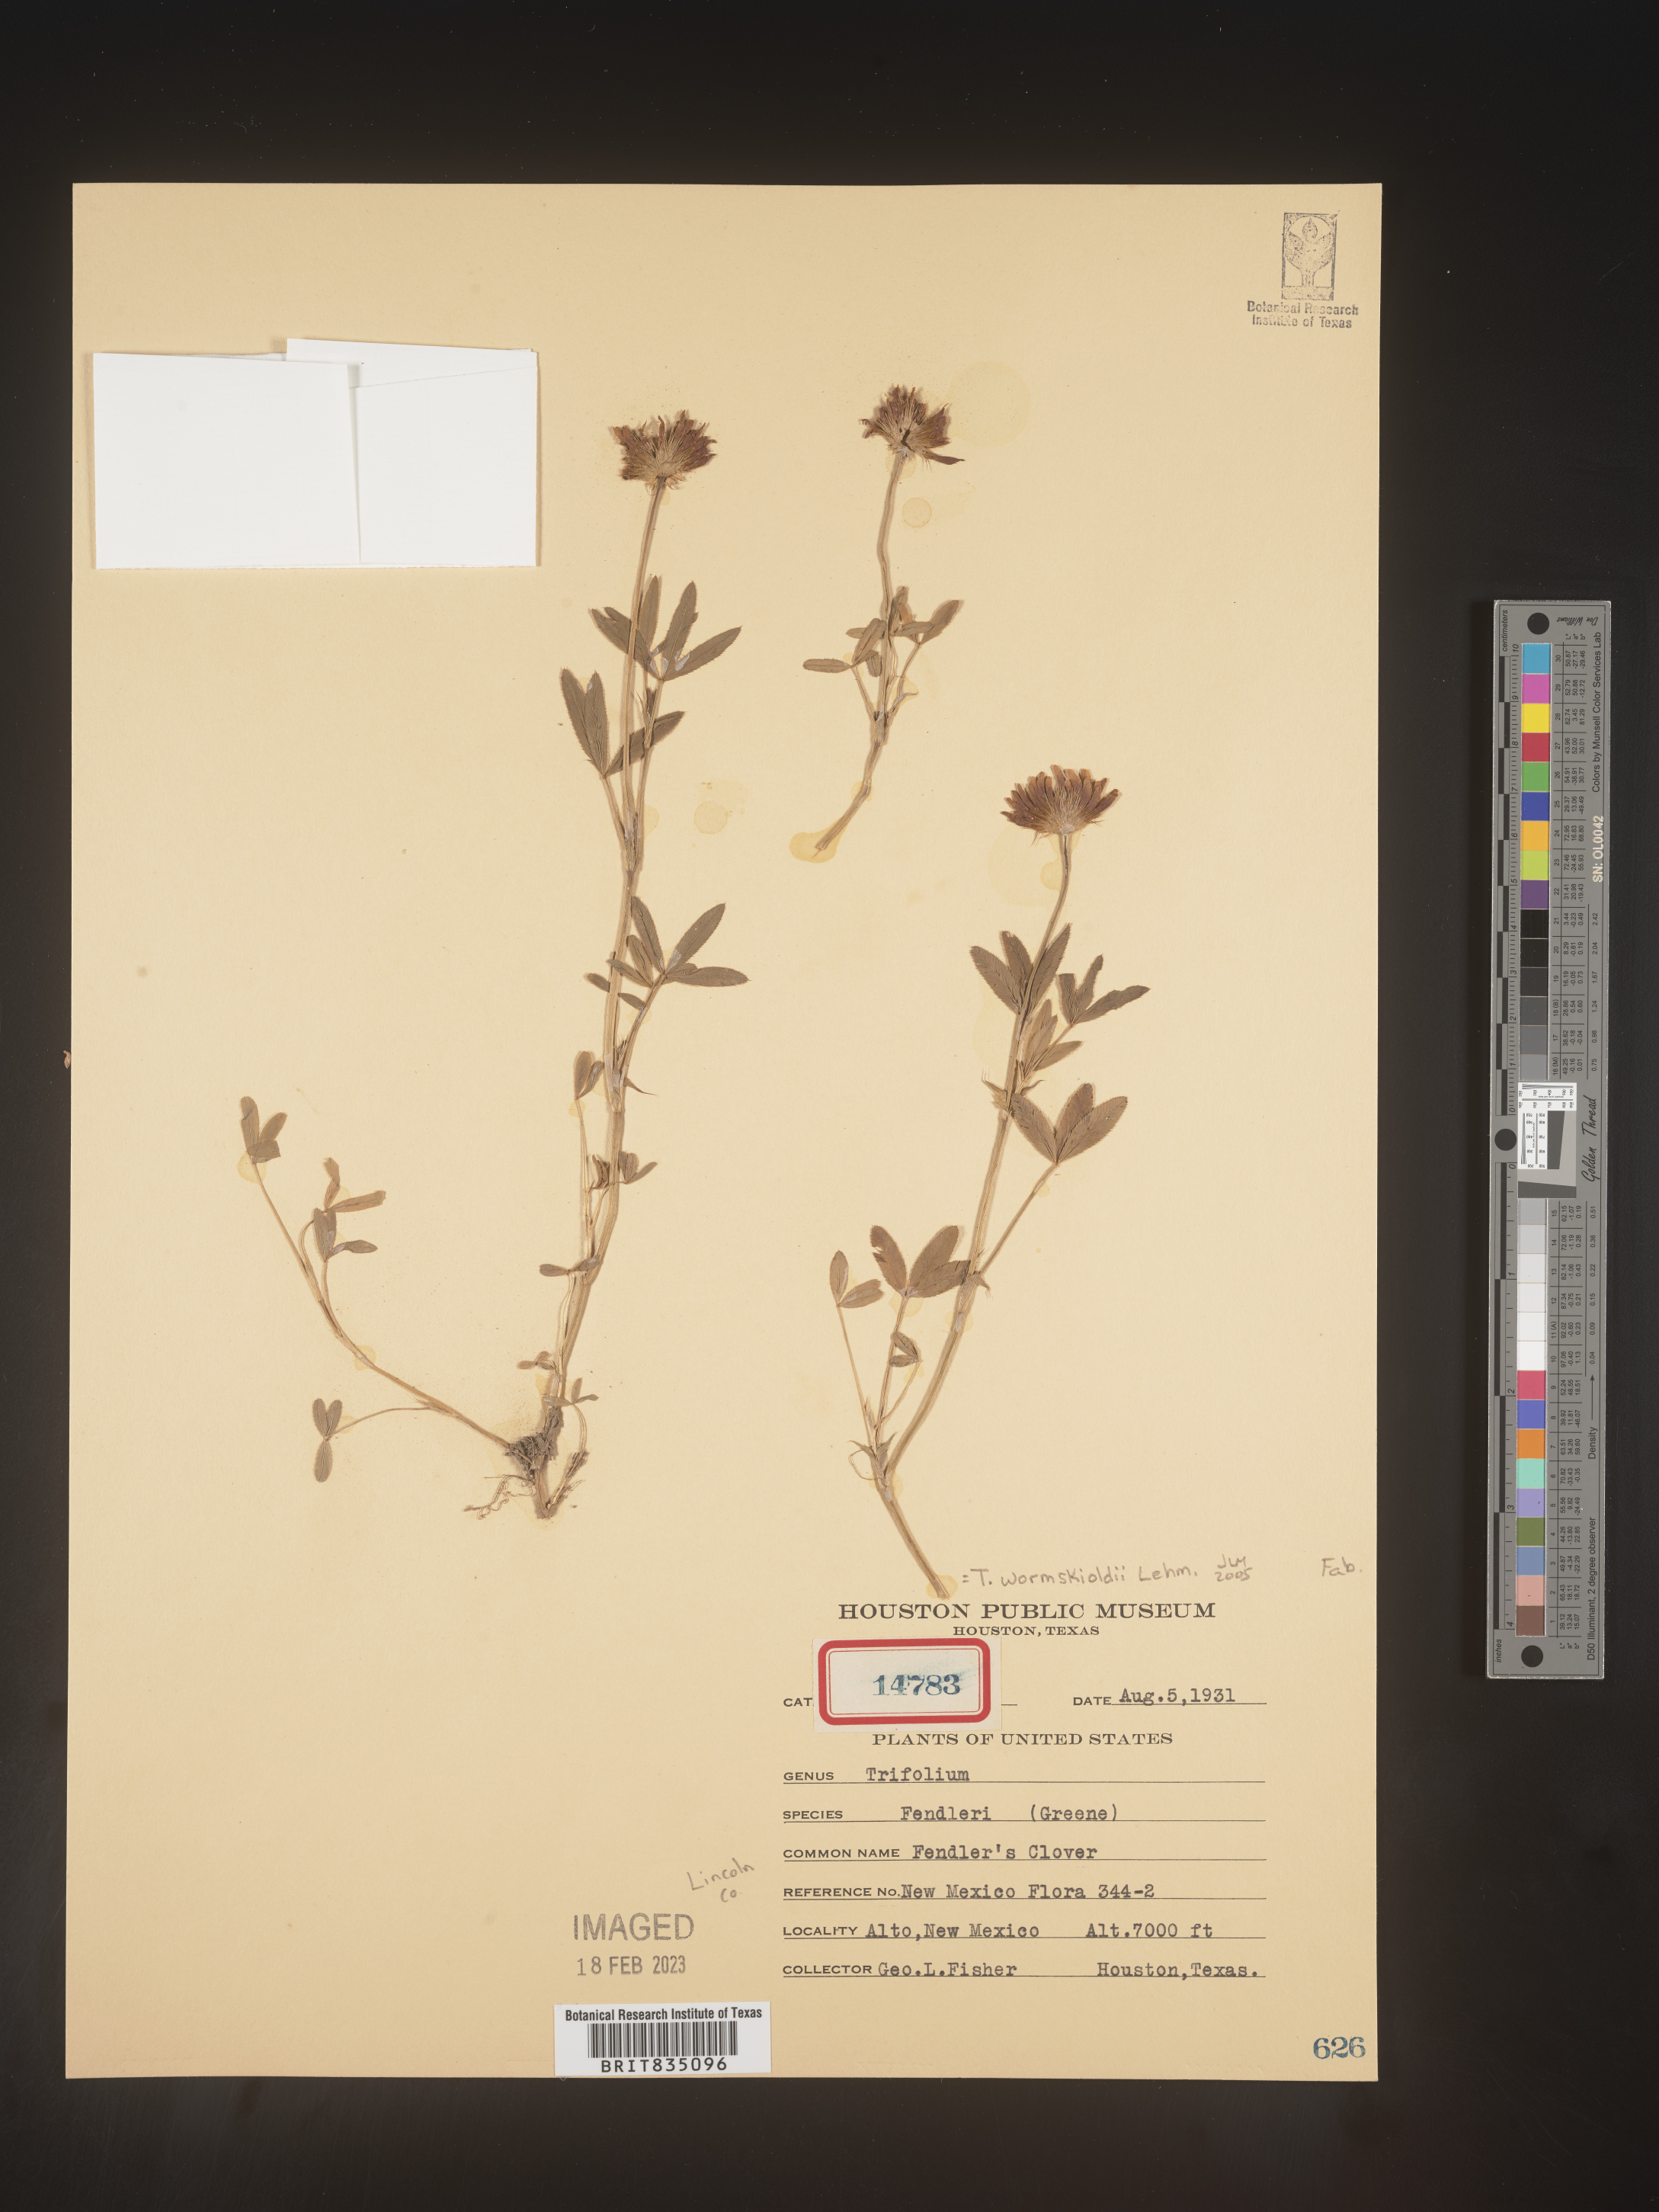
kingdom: Plantae
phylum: Tracheophyta
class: Magnoliopsida
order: Fabales
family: Fabaceae
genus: Trifolium
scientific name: Trifolium wormskioldii
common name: Springbank clover
